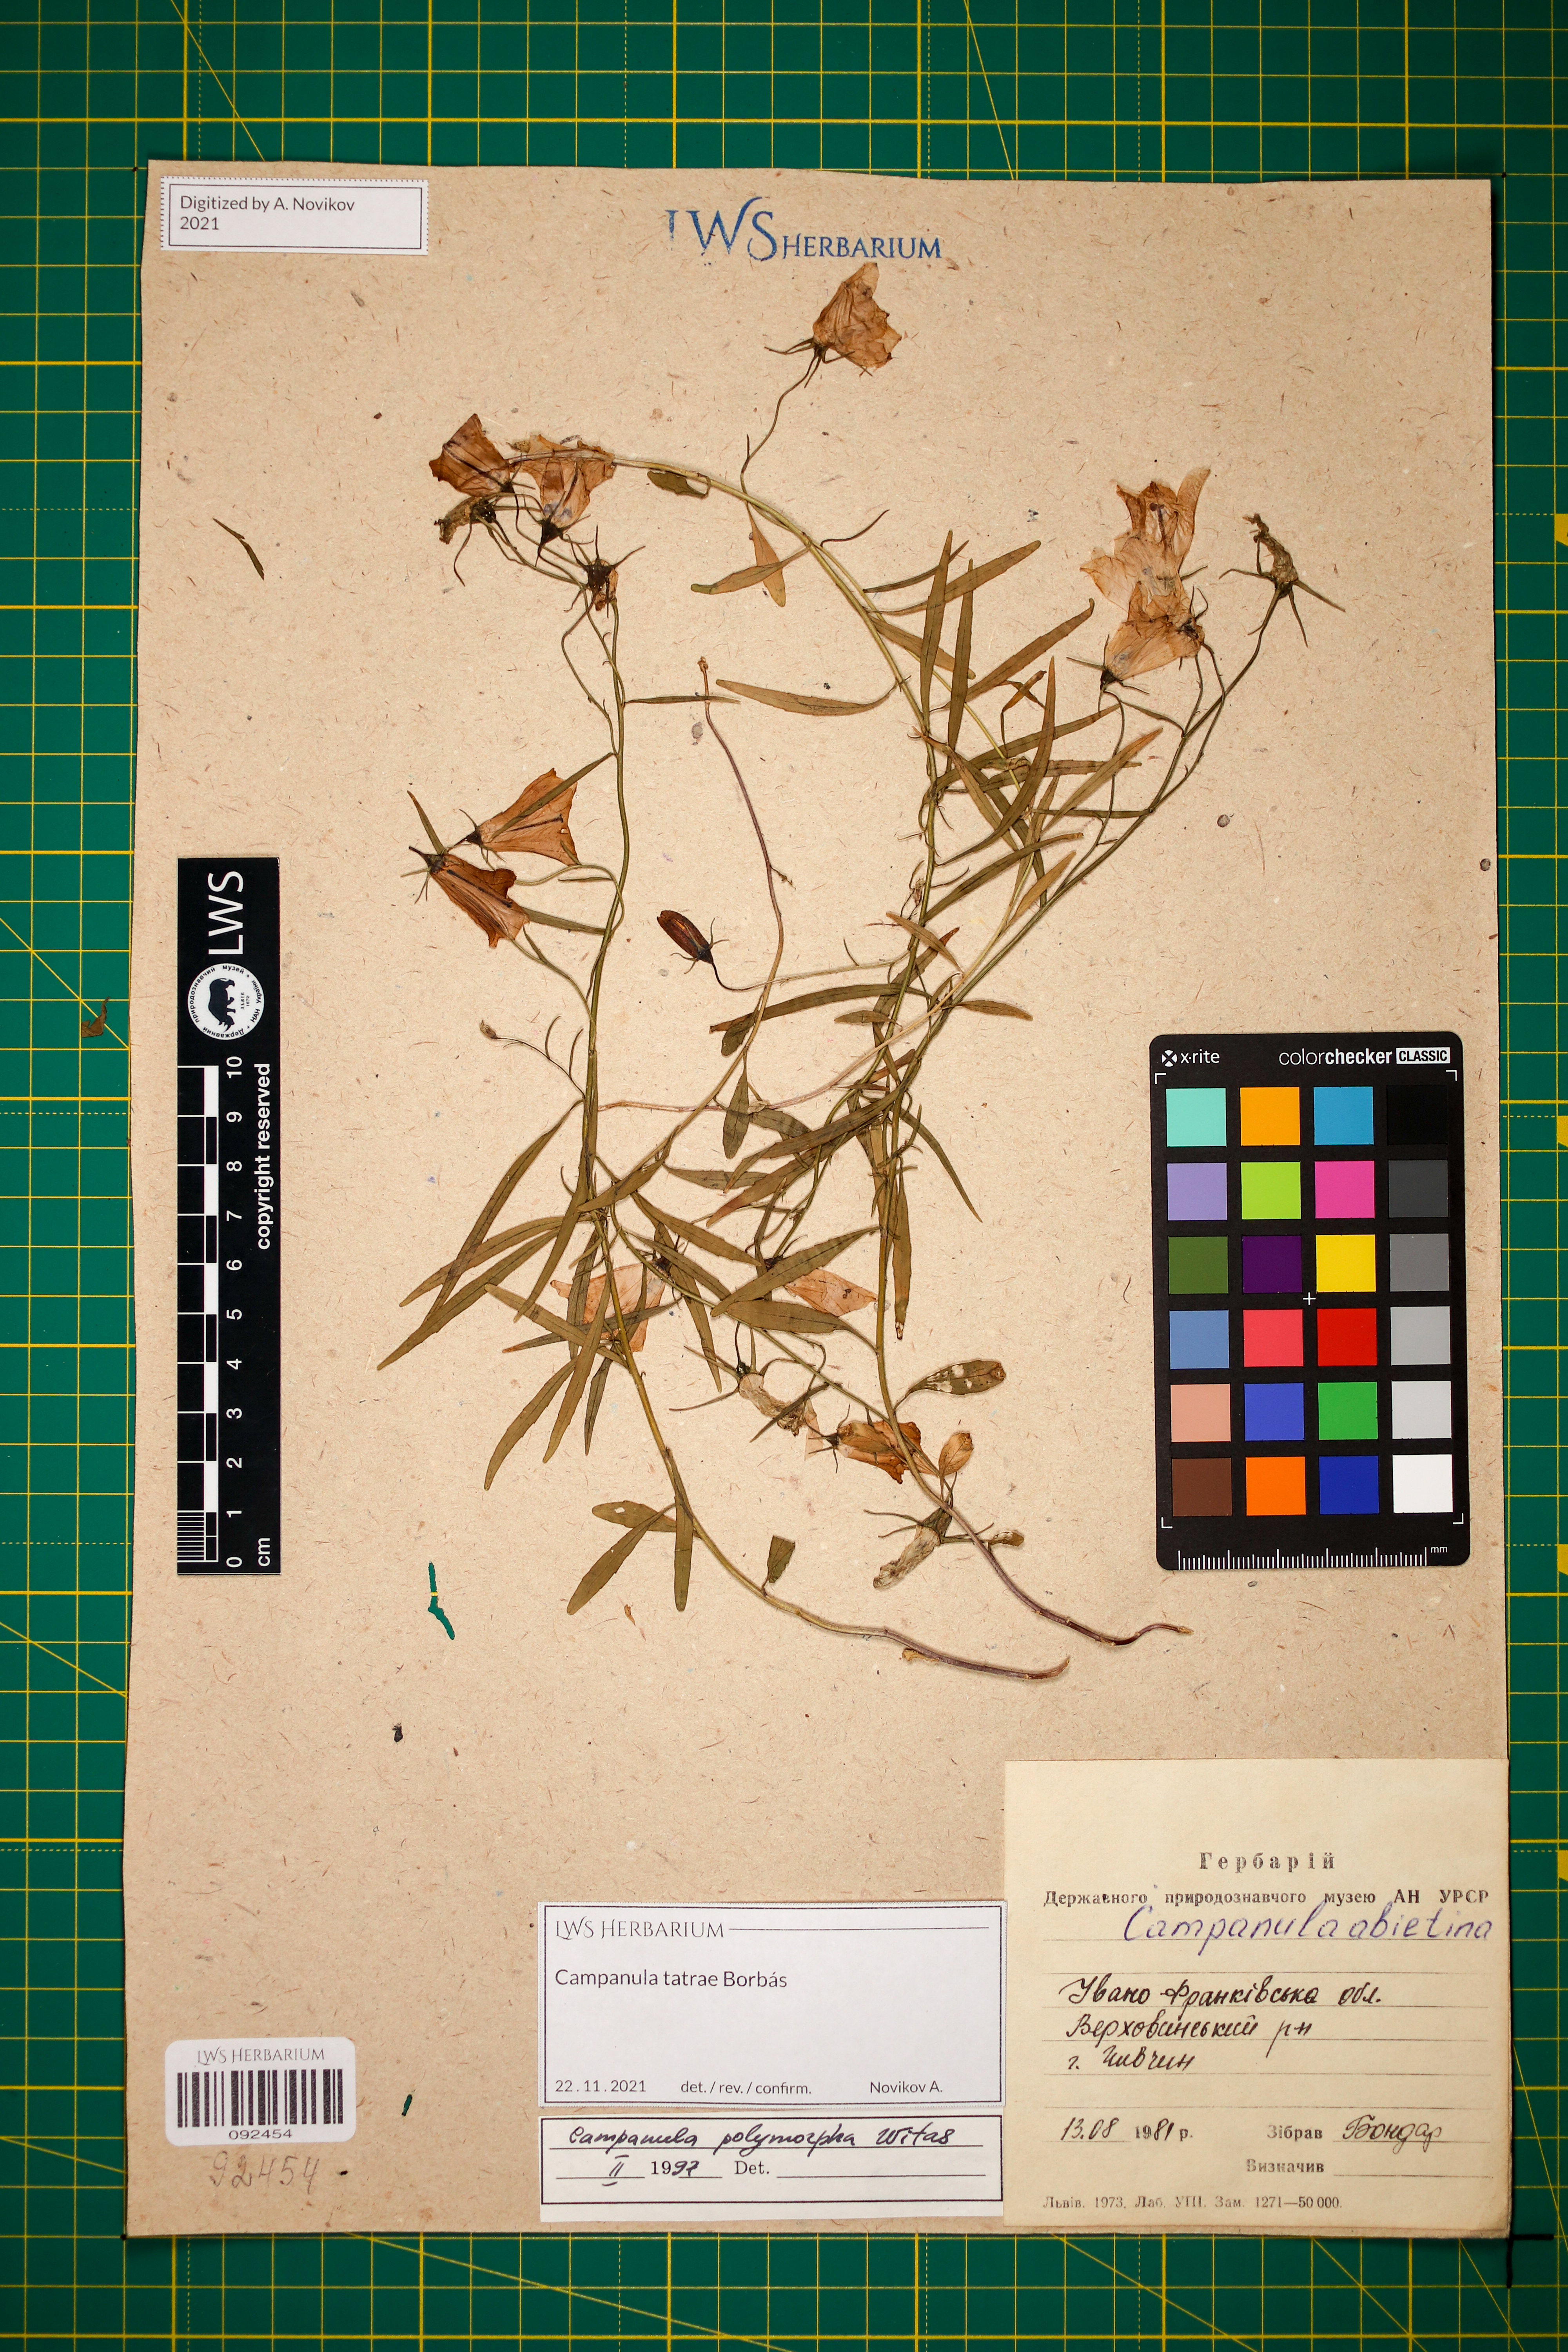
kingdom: Plantae
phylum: Tracheophyta
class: Magnoliopsida
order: Asterales
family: Campanulaceae
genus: Campanula
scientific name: Campanula tatrae
